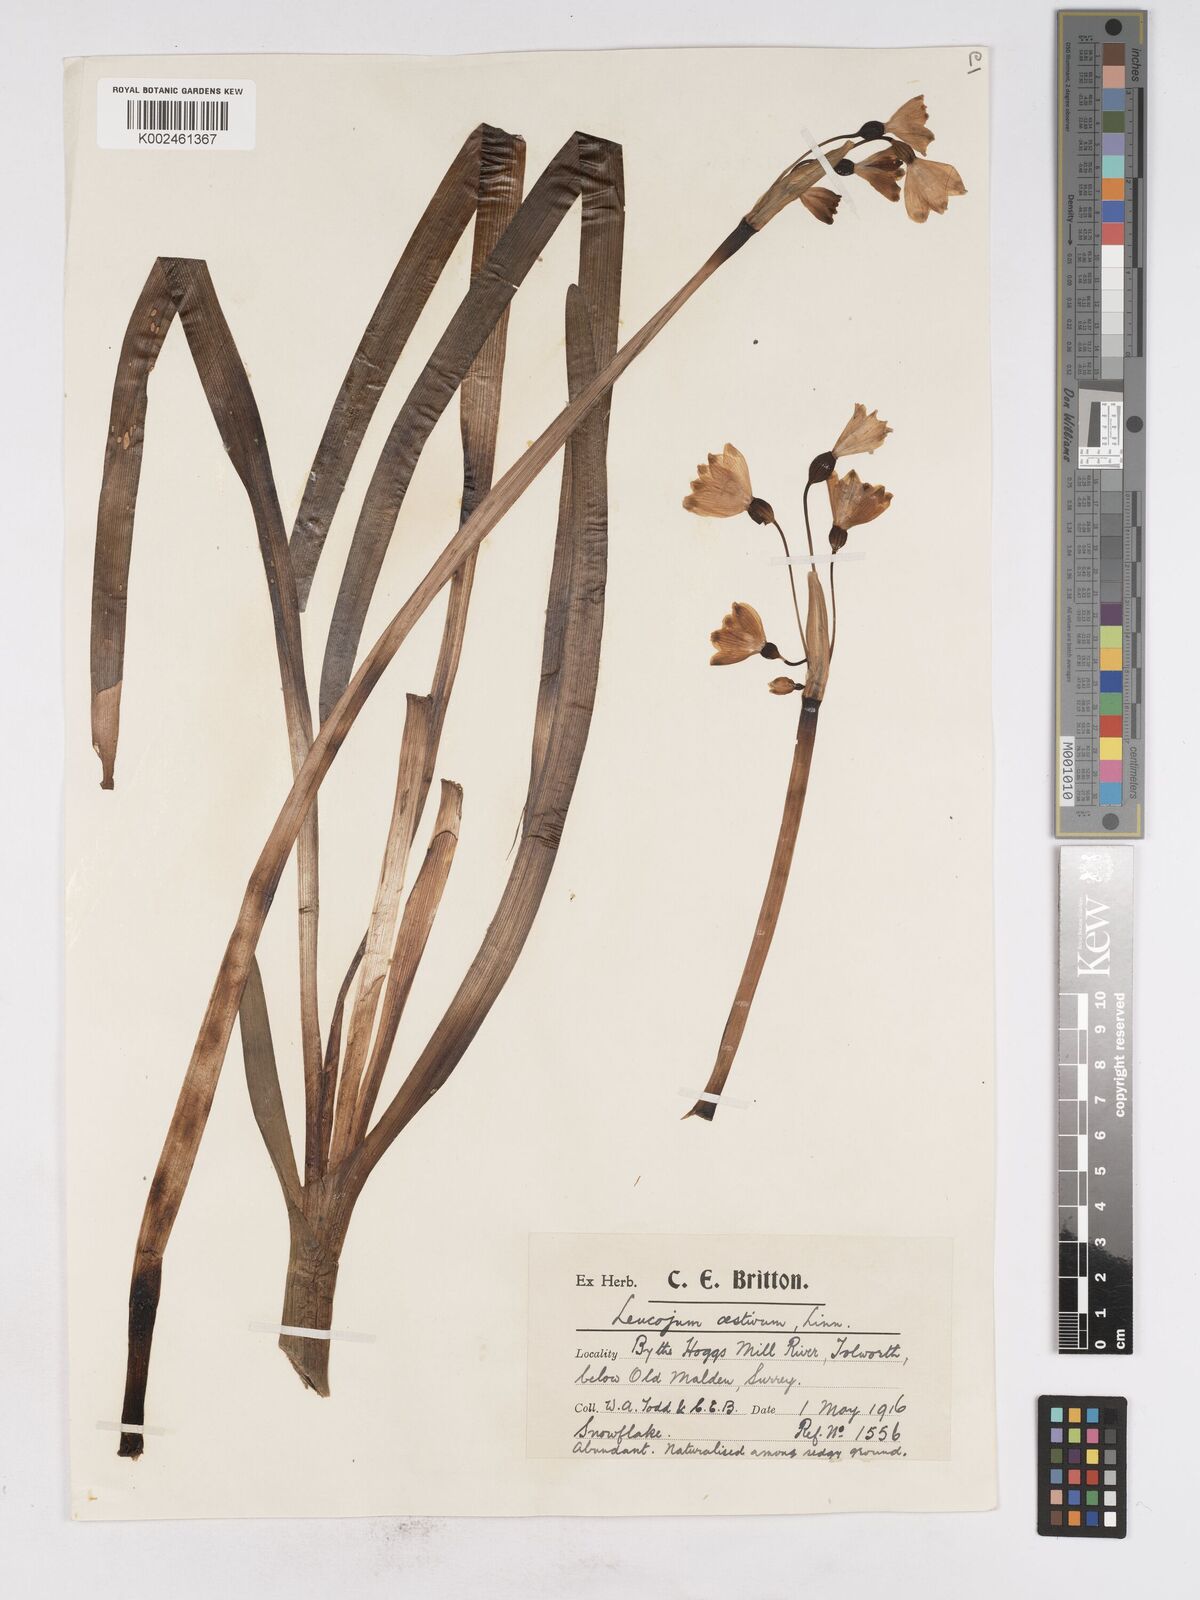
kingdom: Plantae
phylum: Tracheophyta
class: Liliopsida
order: Asparagales
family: Amaryllidaceae
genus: Leucojum
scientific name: Leucojum aestivum
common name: Summer snowflake
